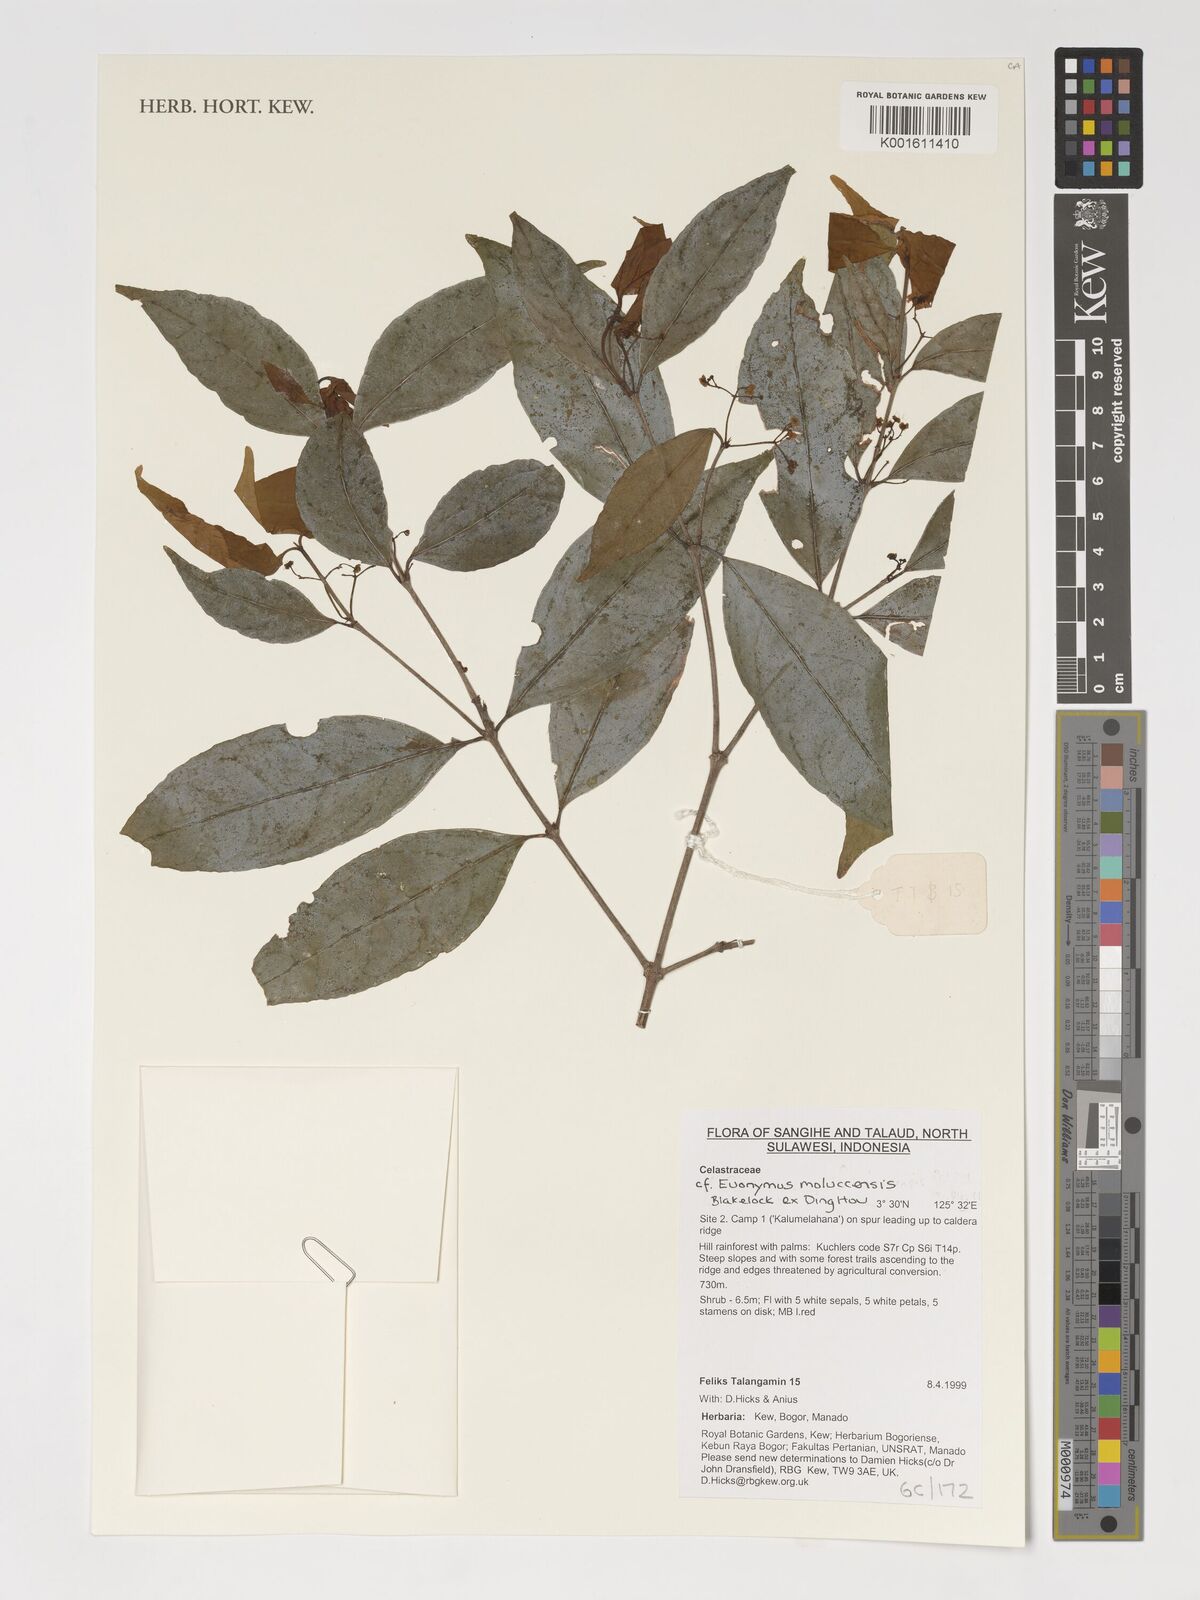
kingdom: Plantae
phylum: Tracheophyta
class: Magnoliopsida
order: Celastrales
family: Celastraceae
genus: Euonymus
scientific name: Euonymus moluccensis
